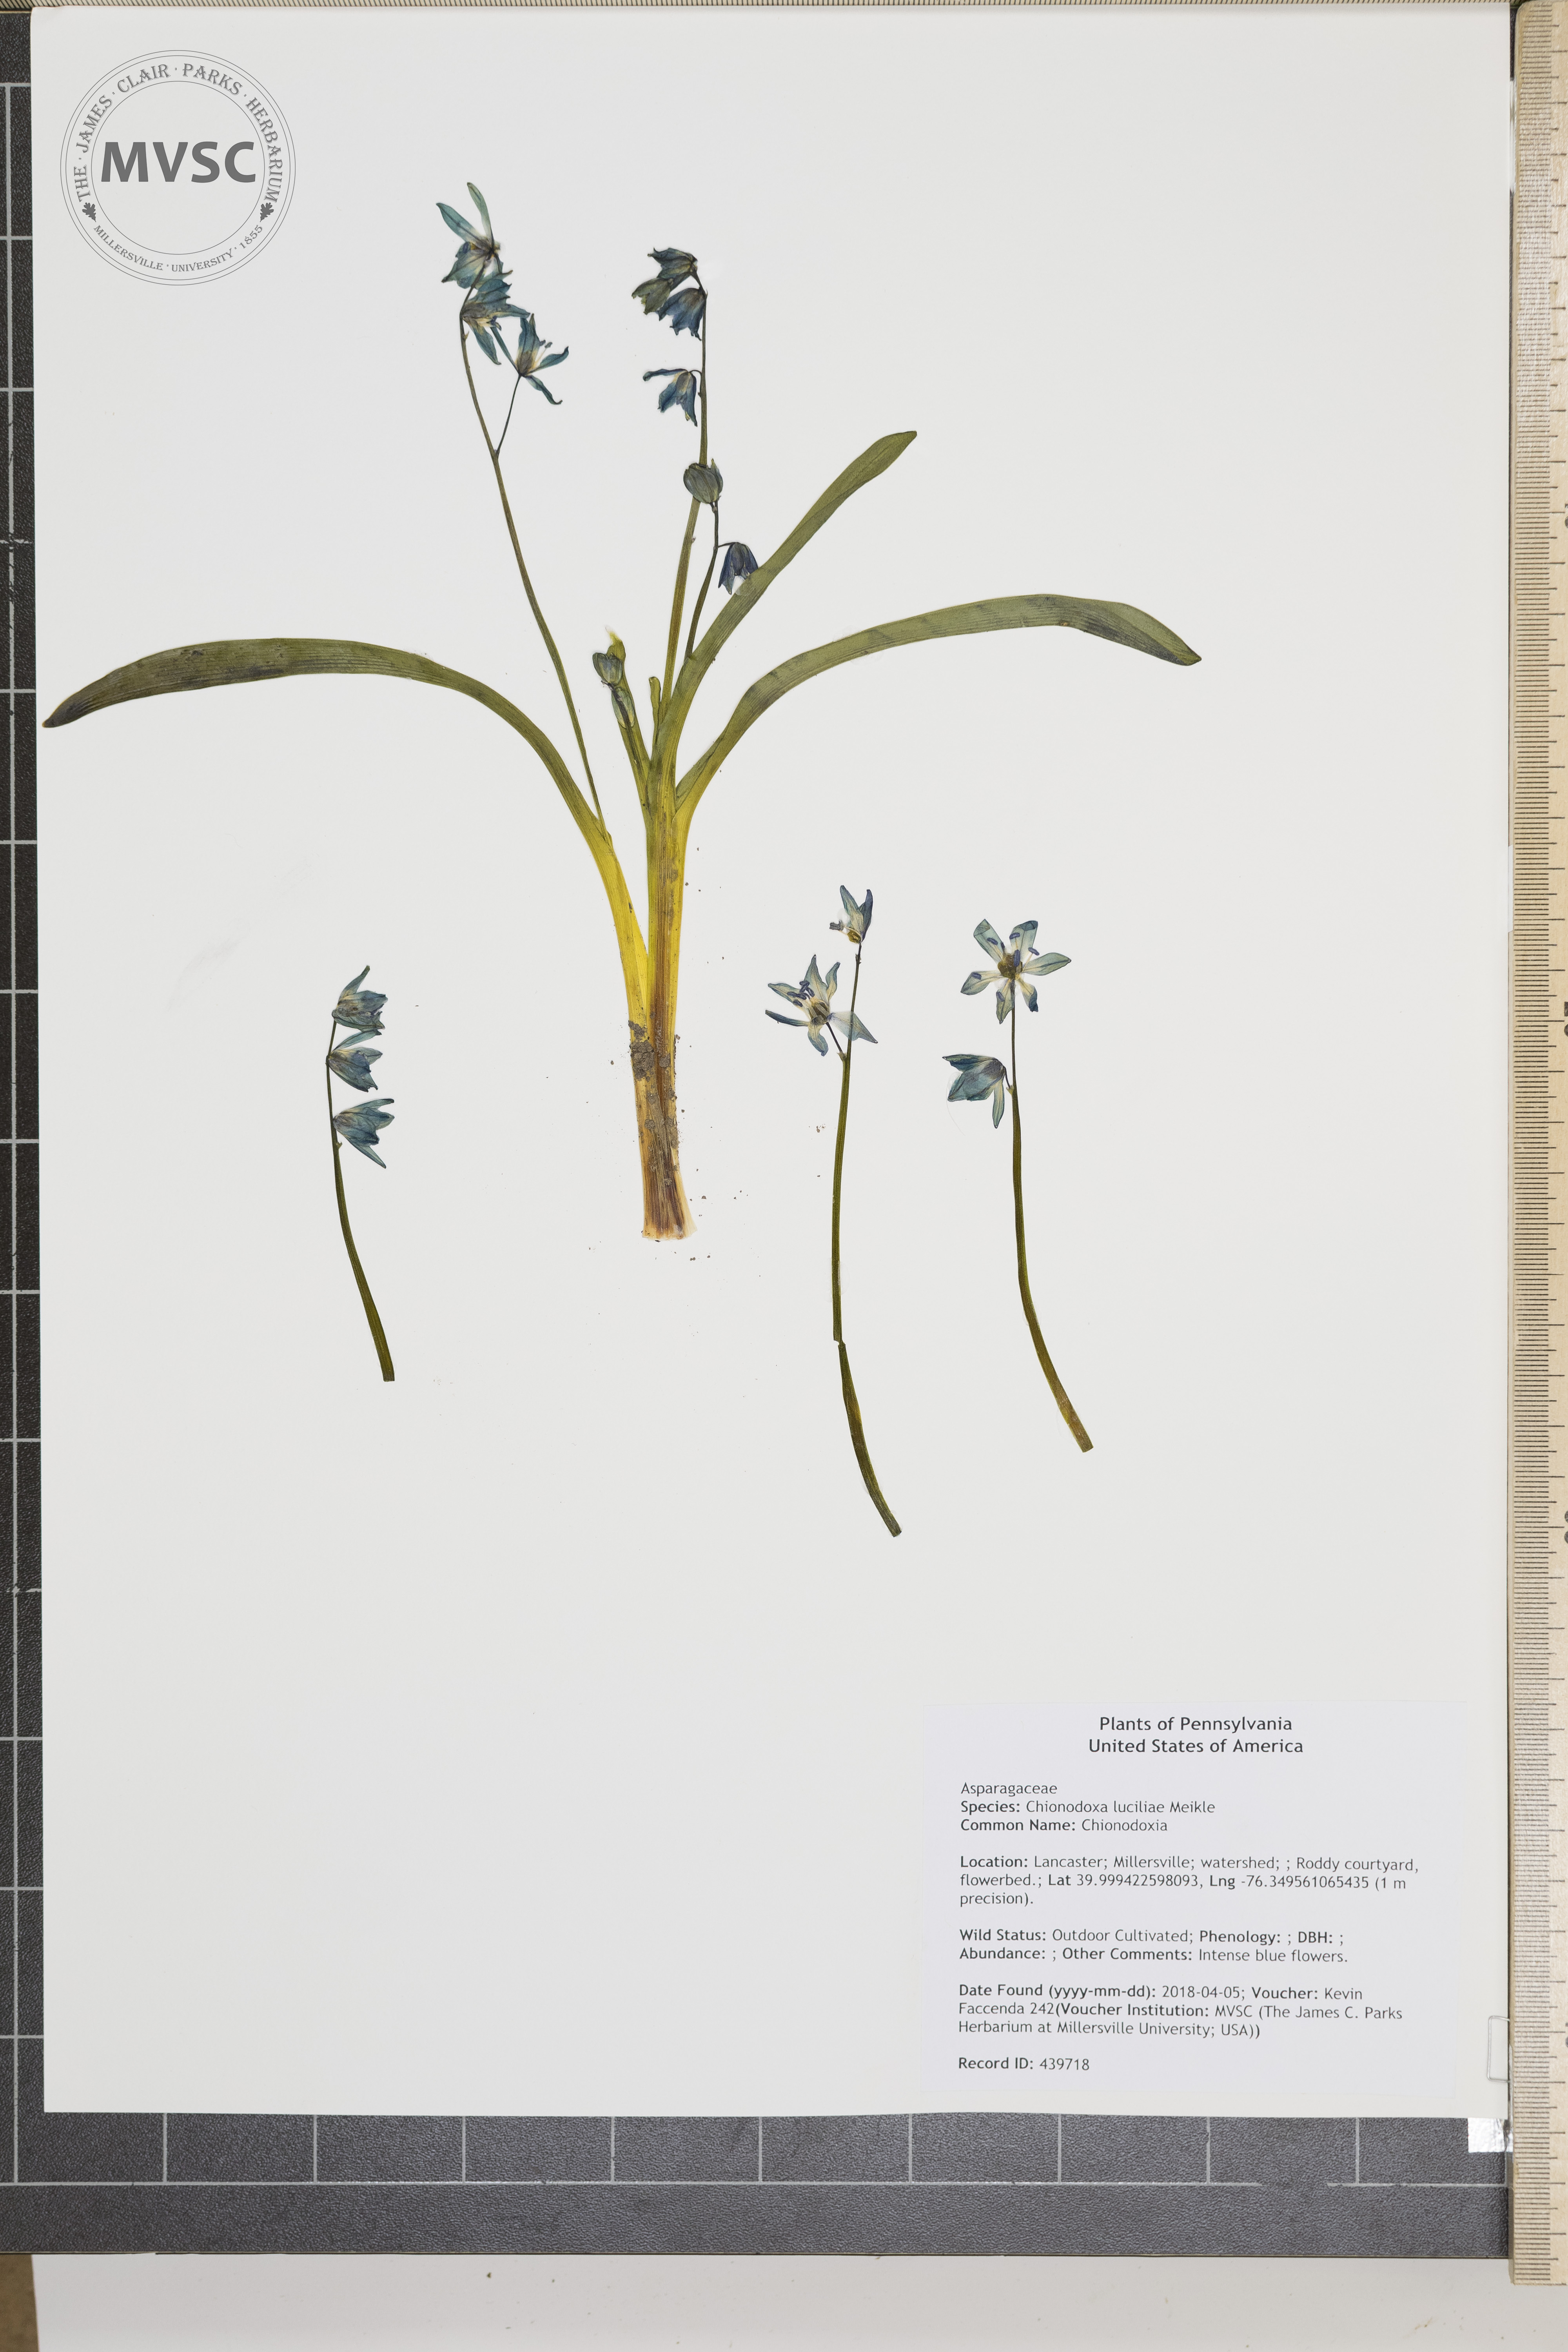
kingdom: Plantae
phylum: Tracheophyta
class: Liliopsida
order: Asparagales
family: Asparagaceae
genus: Scilla
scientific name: Scilla siberica
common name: Siberian squill
